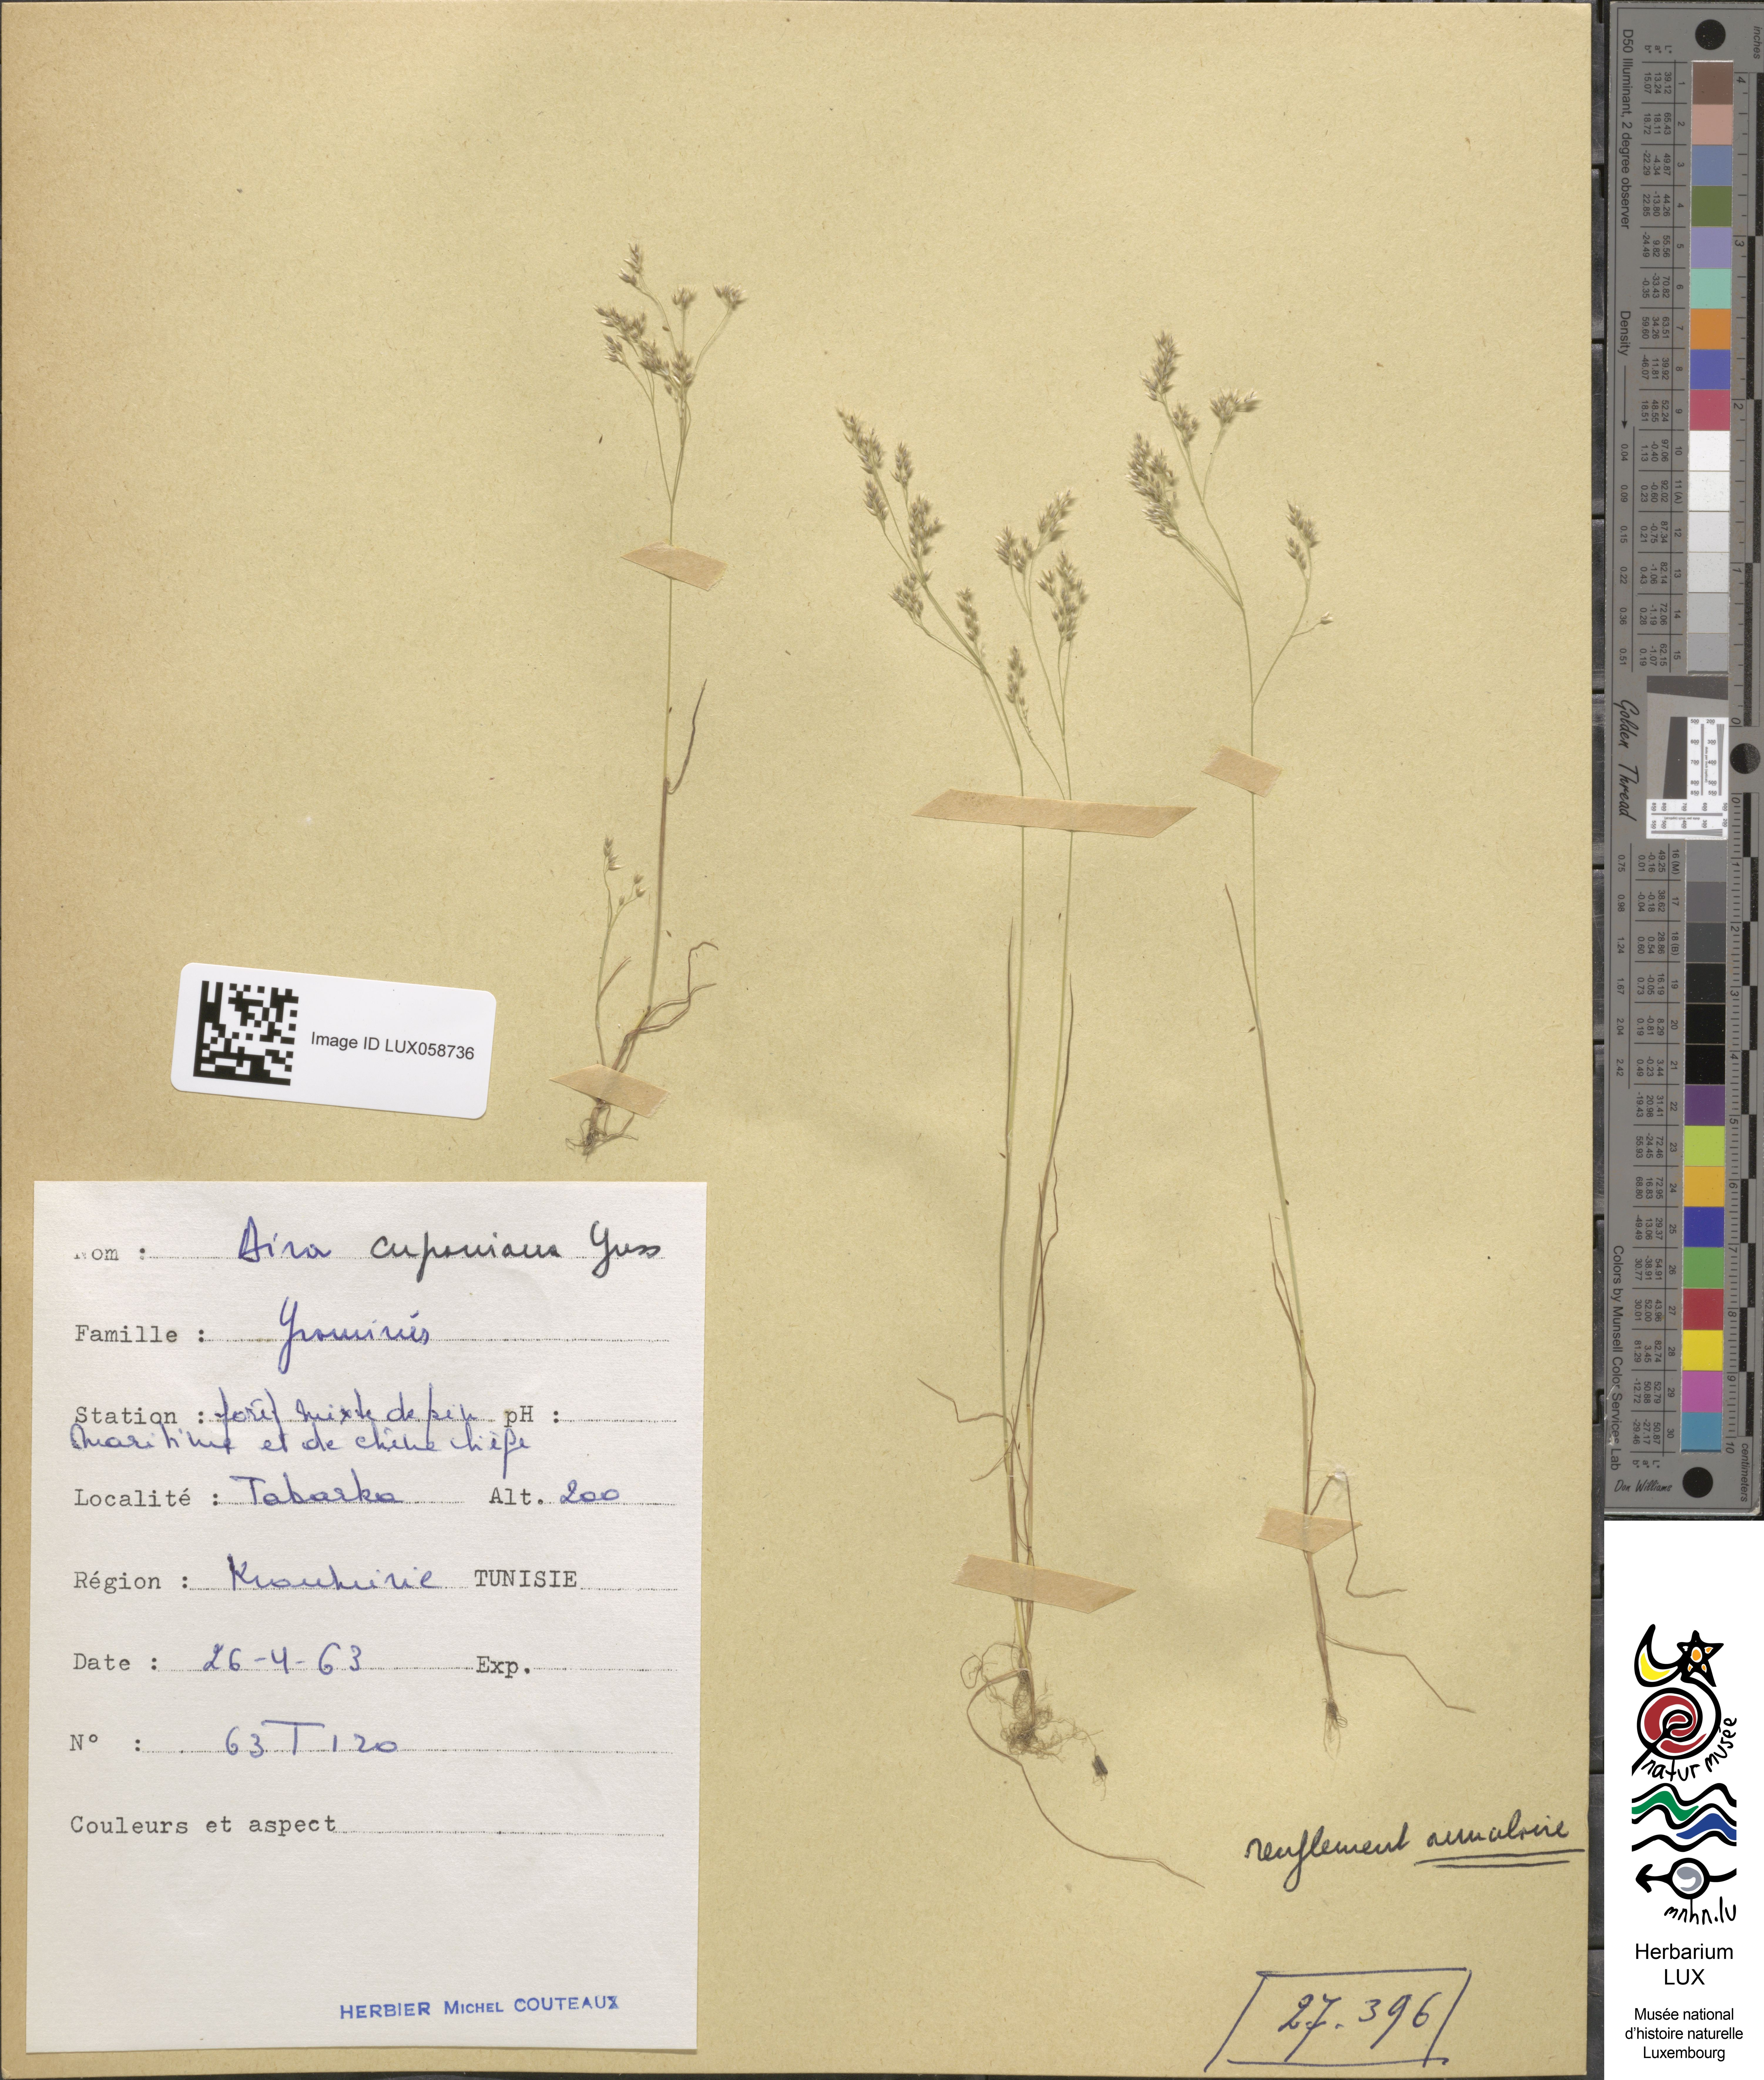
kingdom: Plantae
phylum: Tracheophyta
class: Liliopsida
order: Poales
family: Poaceae
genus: Aira
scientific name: Aira cupaniana
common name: Silver hairgrass
